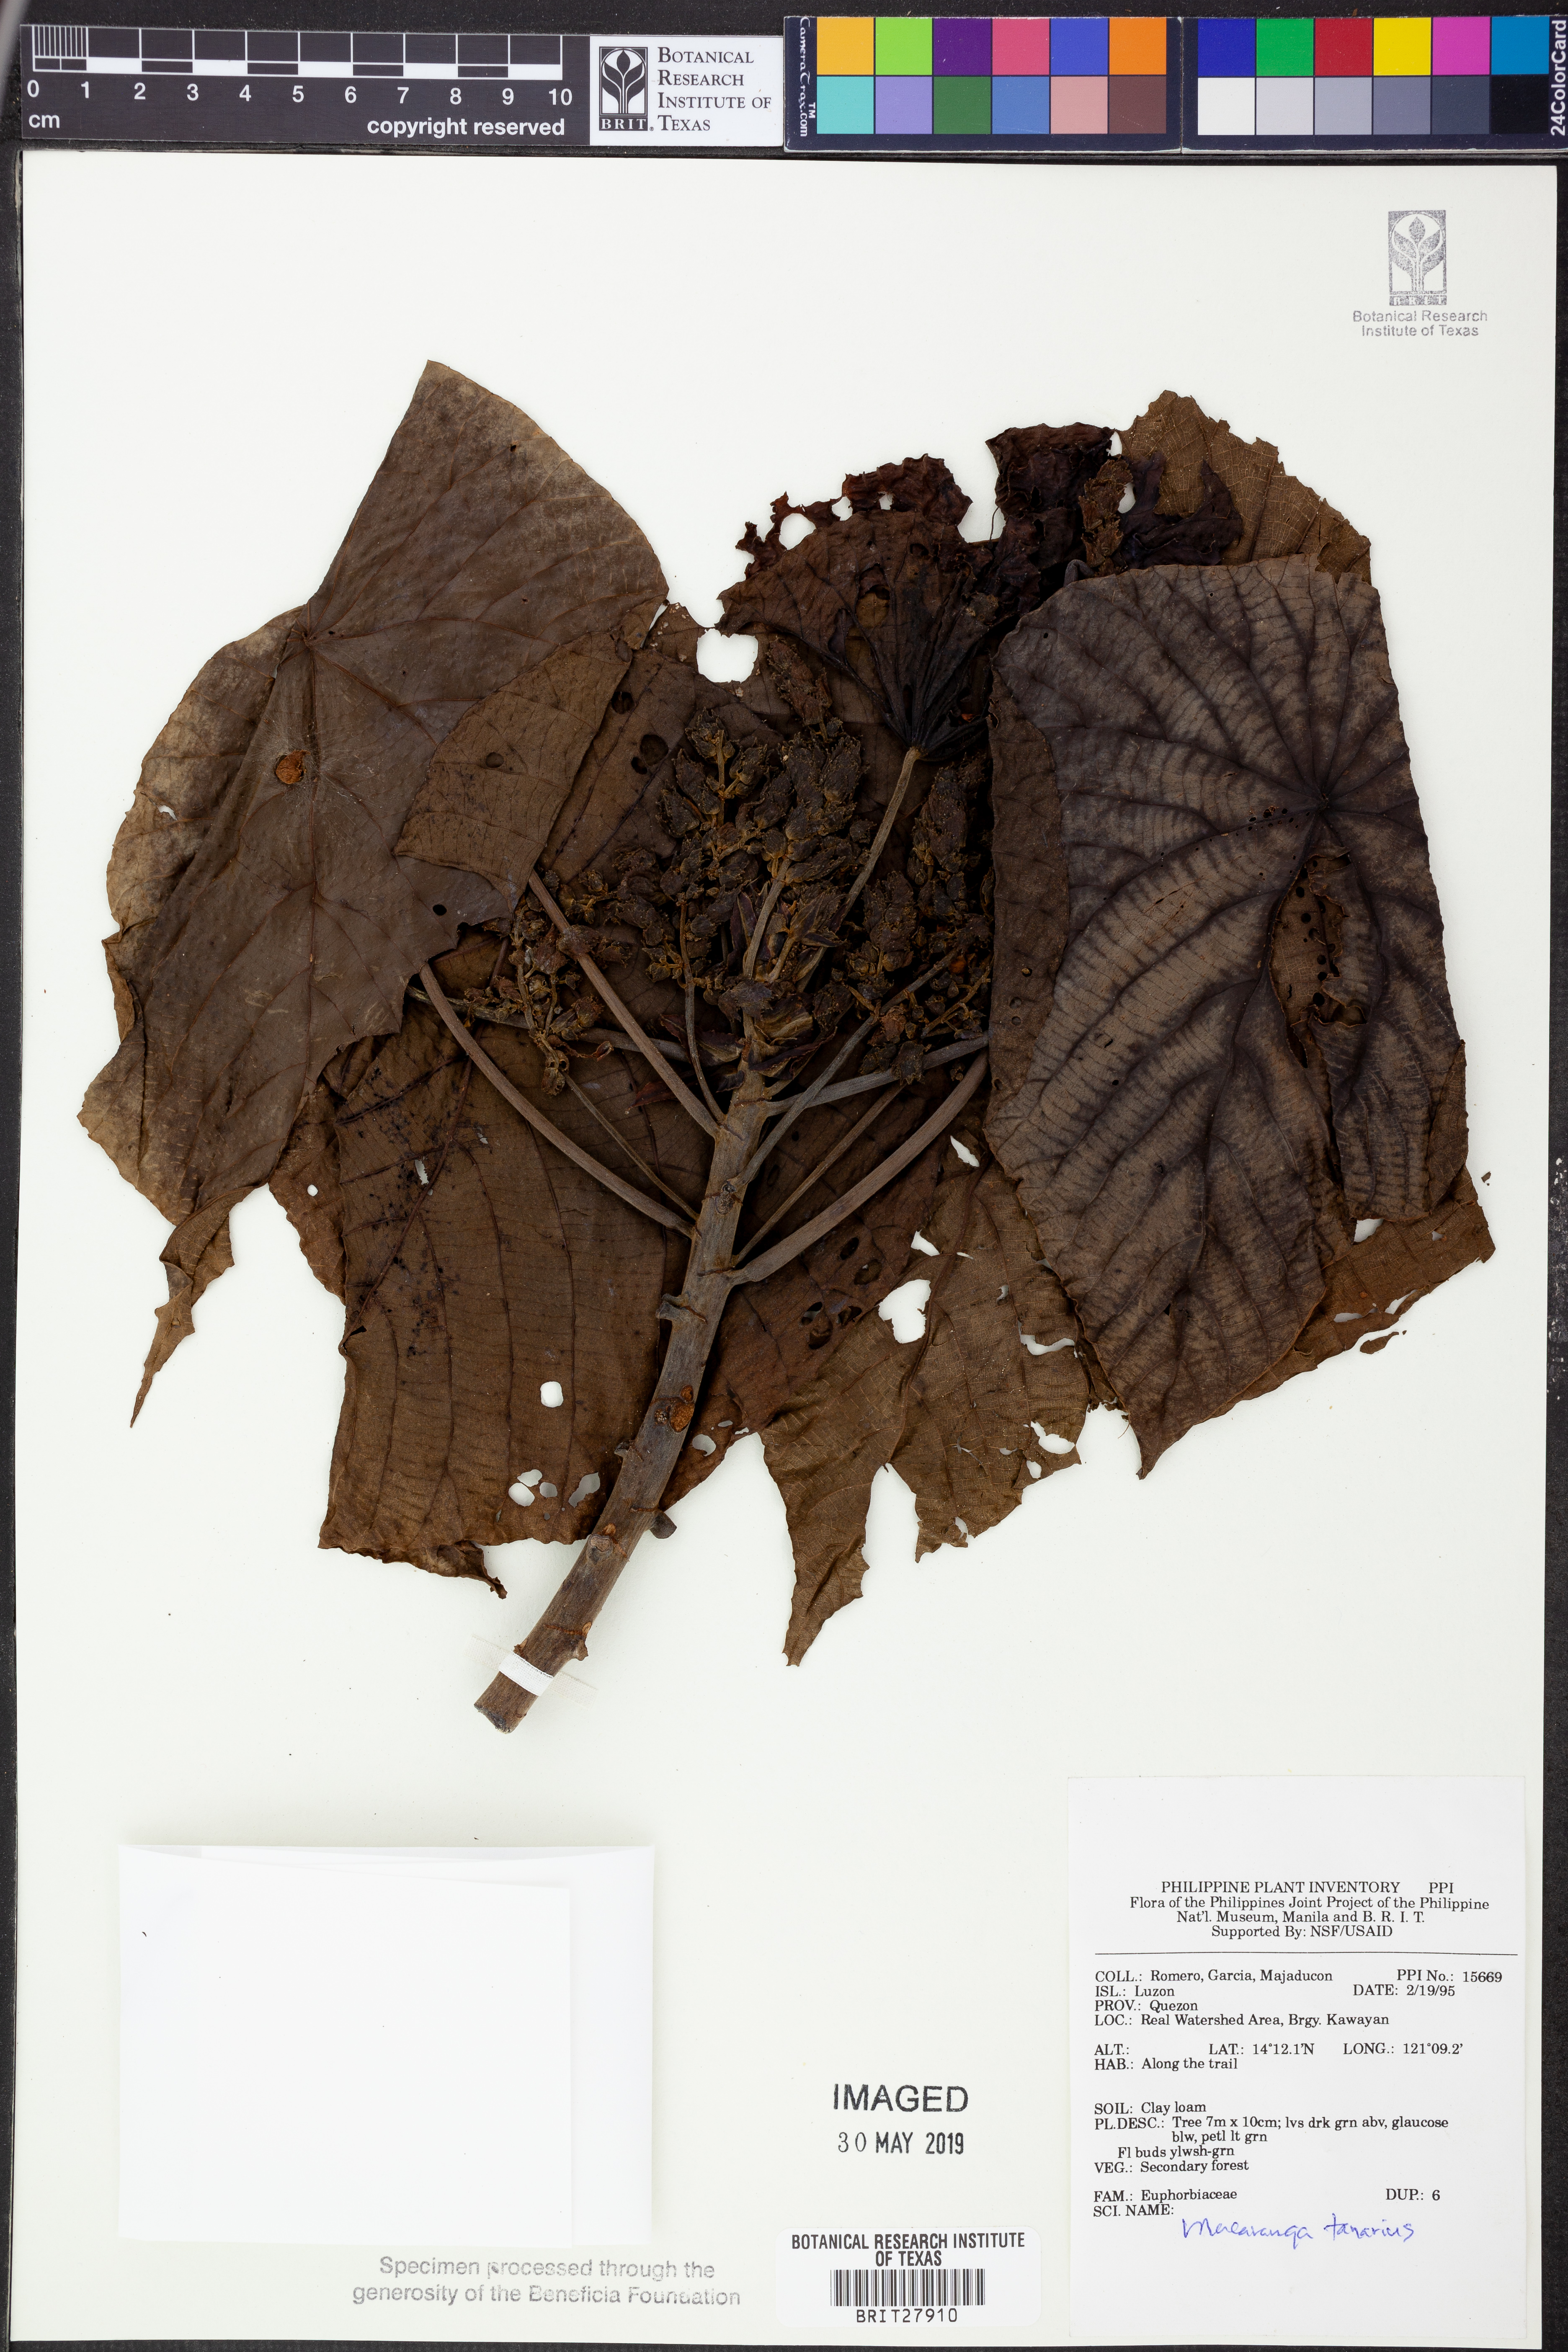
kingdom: Plantae
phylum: Tracheophyta
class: Magnoliopsida
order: Malpighiales
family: Euphorbiaceae
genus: Macaranga
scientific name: Macaranga tanarius
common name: Parasol leaf tree
